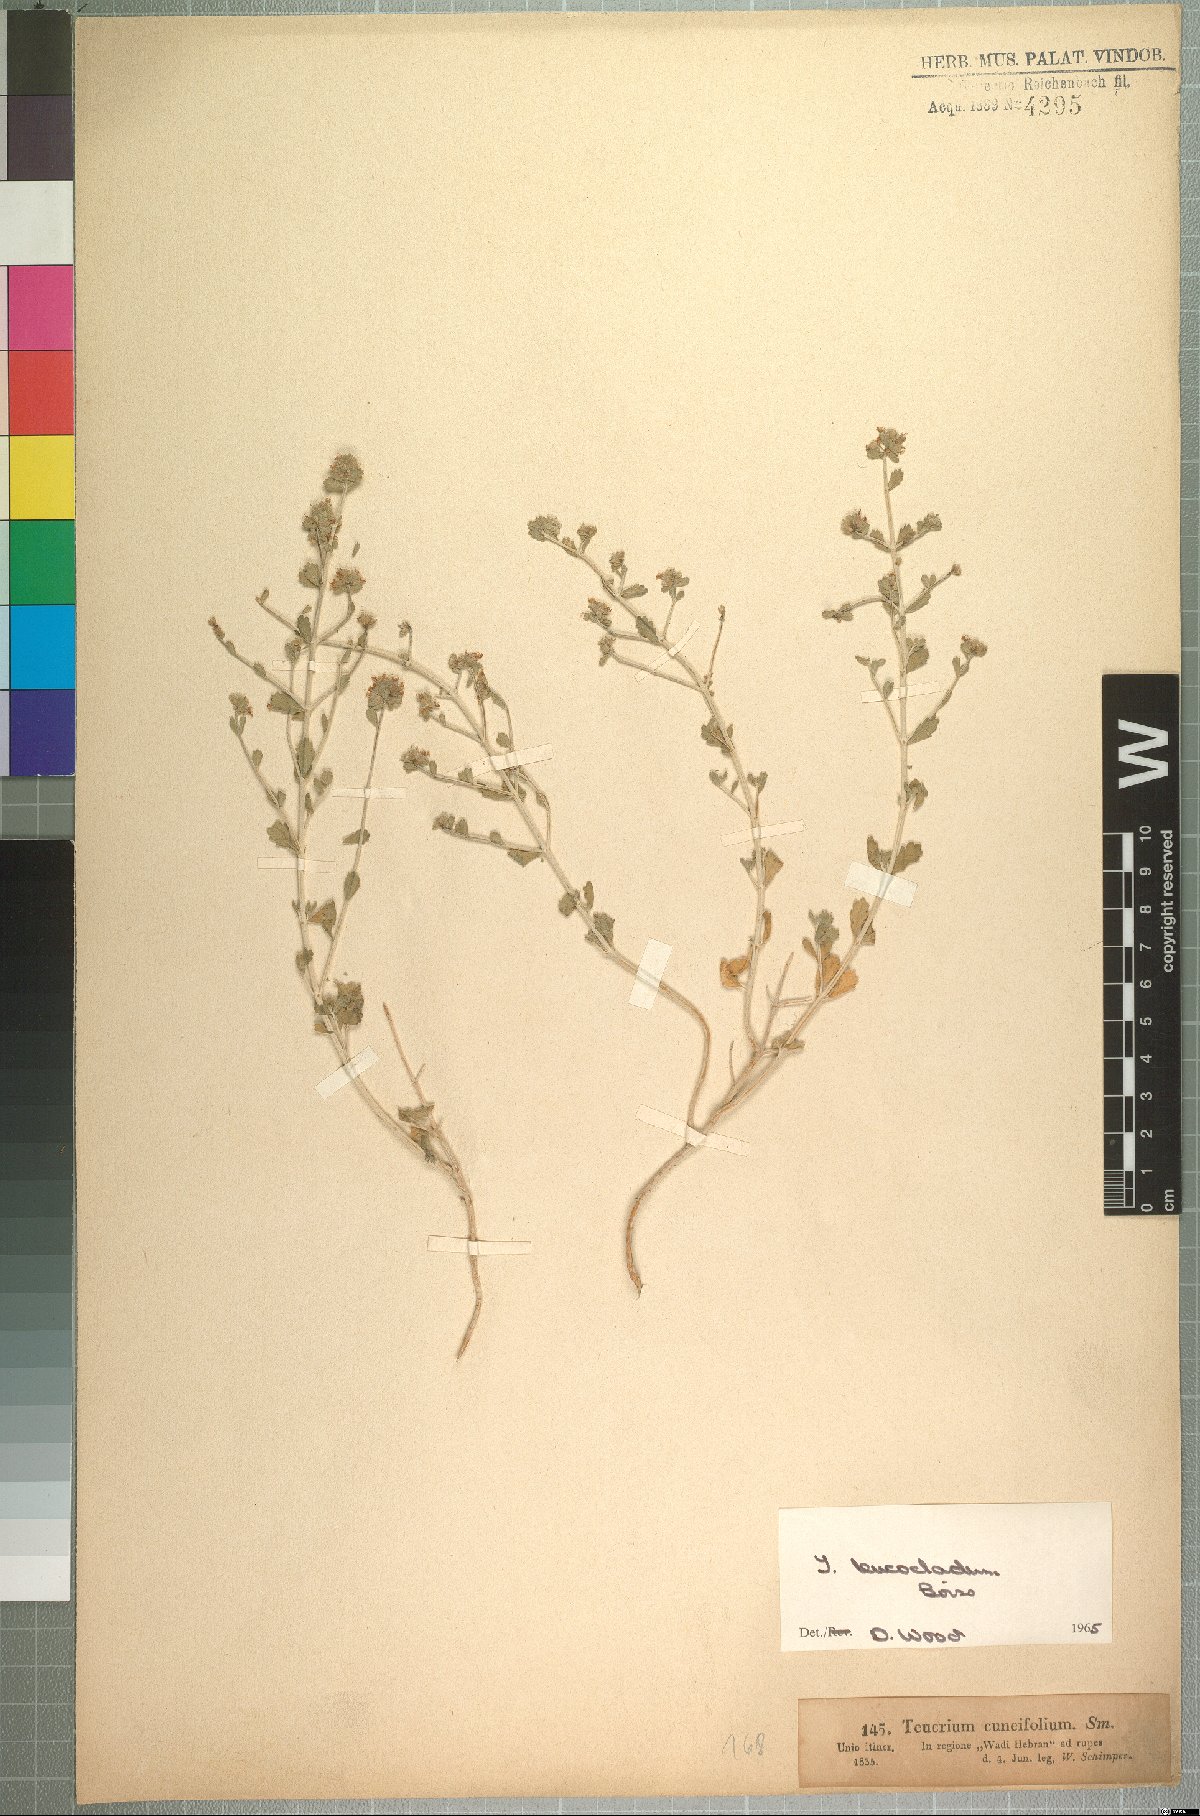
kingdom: Plantae
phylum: Tracheophyta
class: Magnoliopsida
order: Lamiales
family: Lamiaceae
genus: Teucrium
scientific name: Teucrium leucocladum
